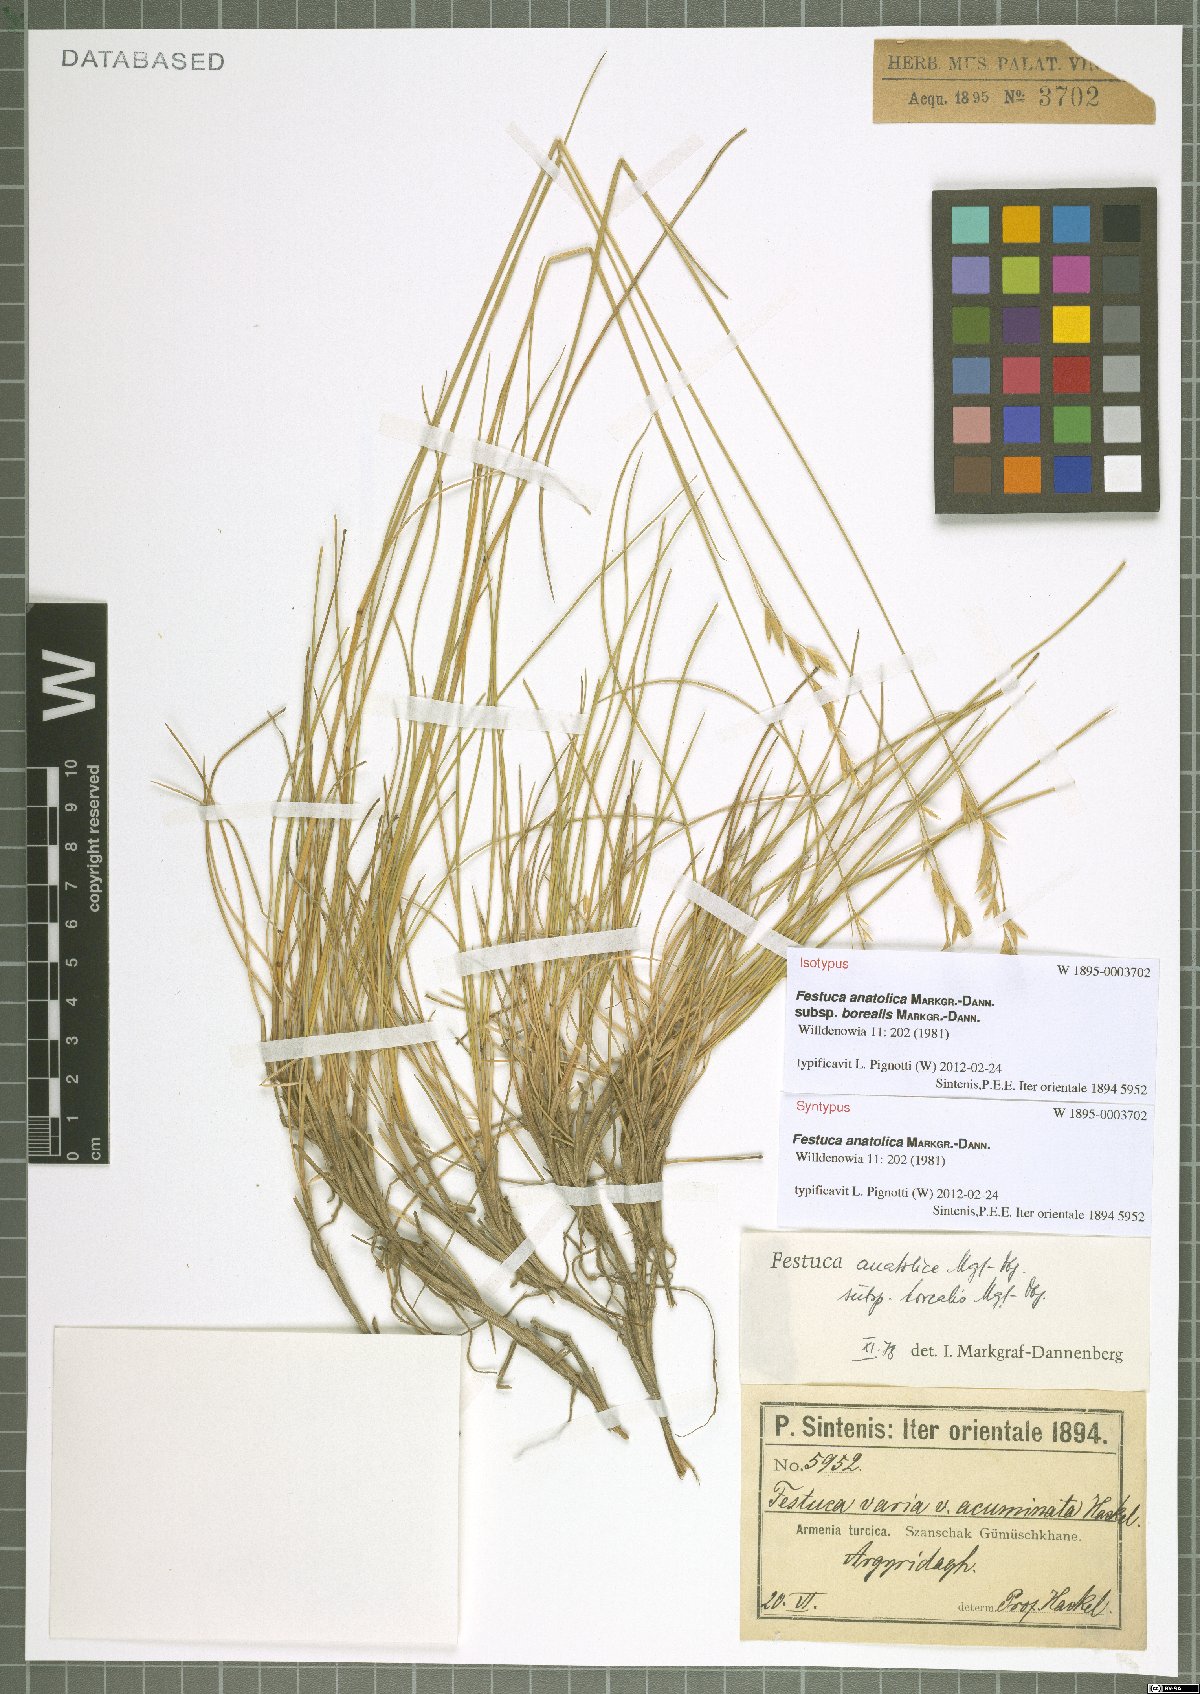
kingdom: Plantae
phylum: Tracheophyta
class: Liliopsida
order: Poales
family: Poaceae
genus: Festuca
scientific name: Festuca anatolica
